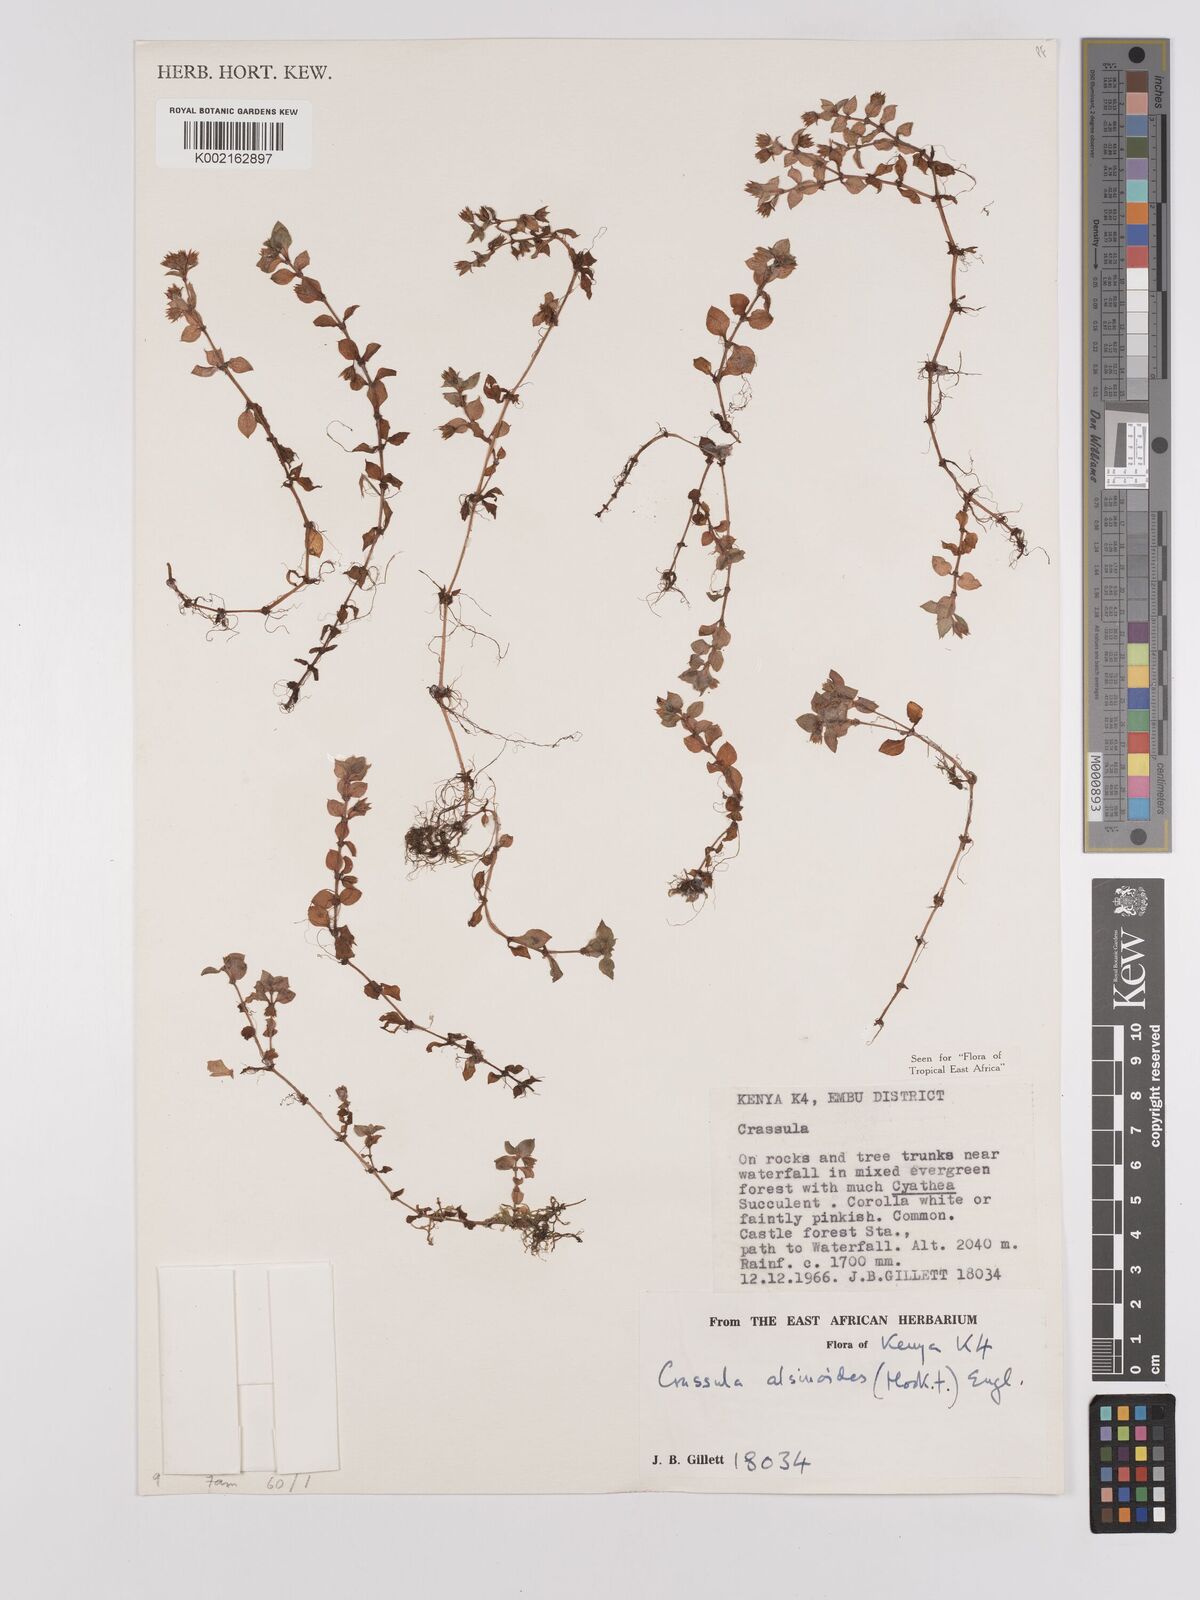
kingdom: Plantae
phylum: Tracheophyta
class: Magnoliopsida
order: Saxifragales
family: Crassulaceae
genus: Crassula
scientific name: Crassula alsinoides
